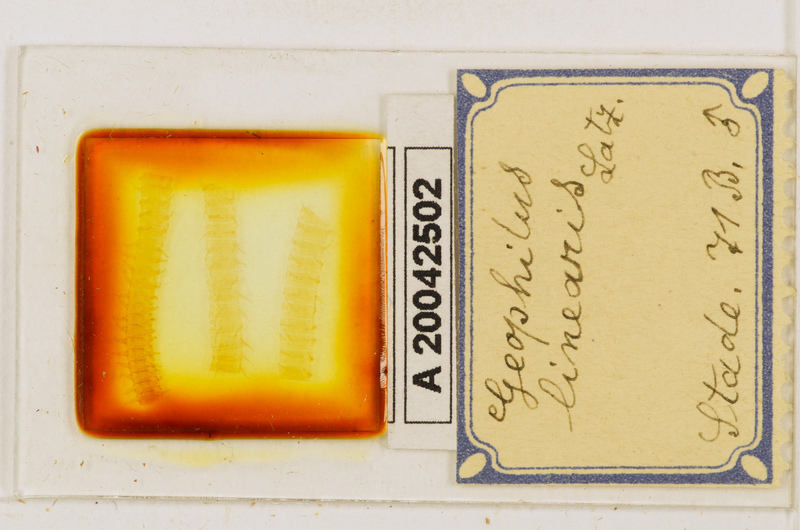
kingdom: Animalia
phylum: Arthropoda
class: Chilopoda
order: Geophilomorpha
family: Geophilidae
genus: Stenotaenia
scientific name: Stenotaenia linearis
